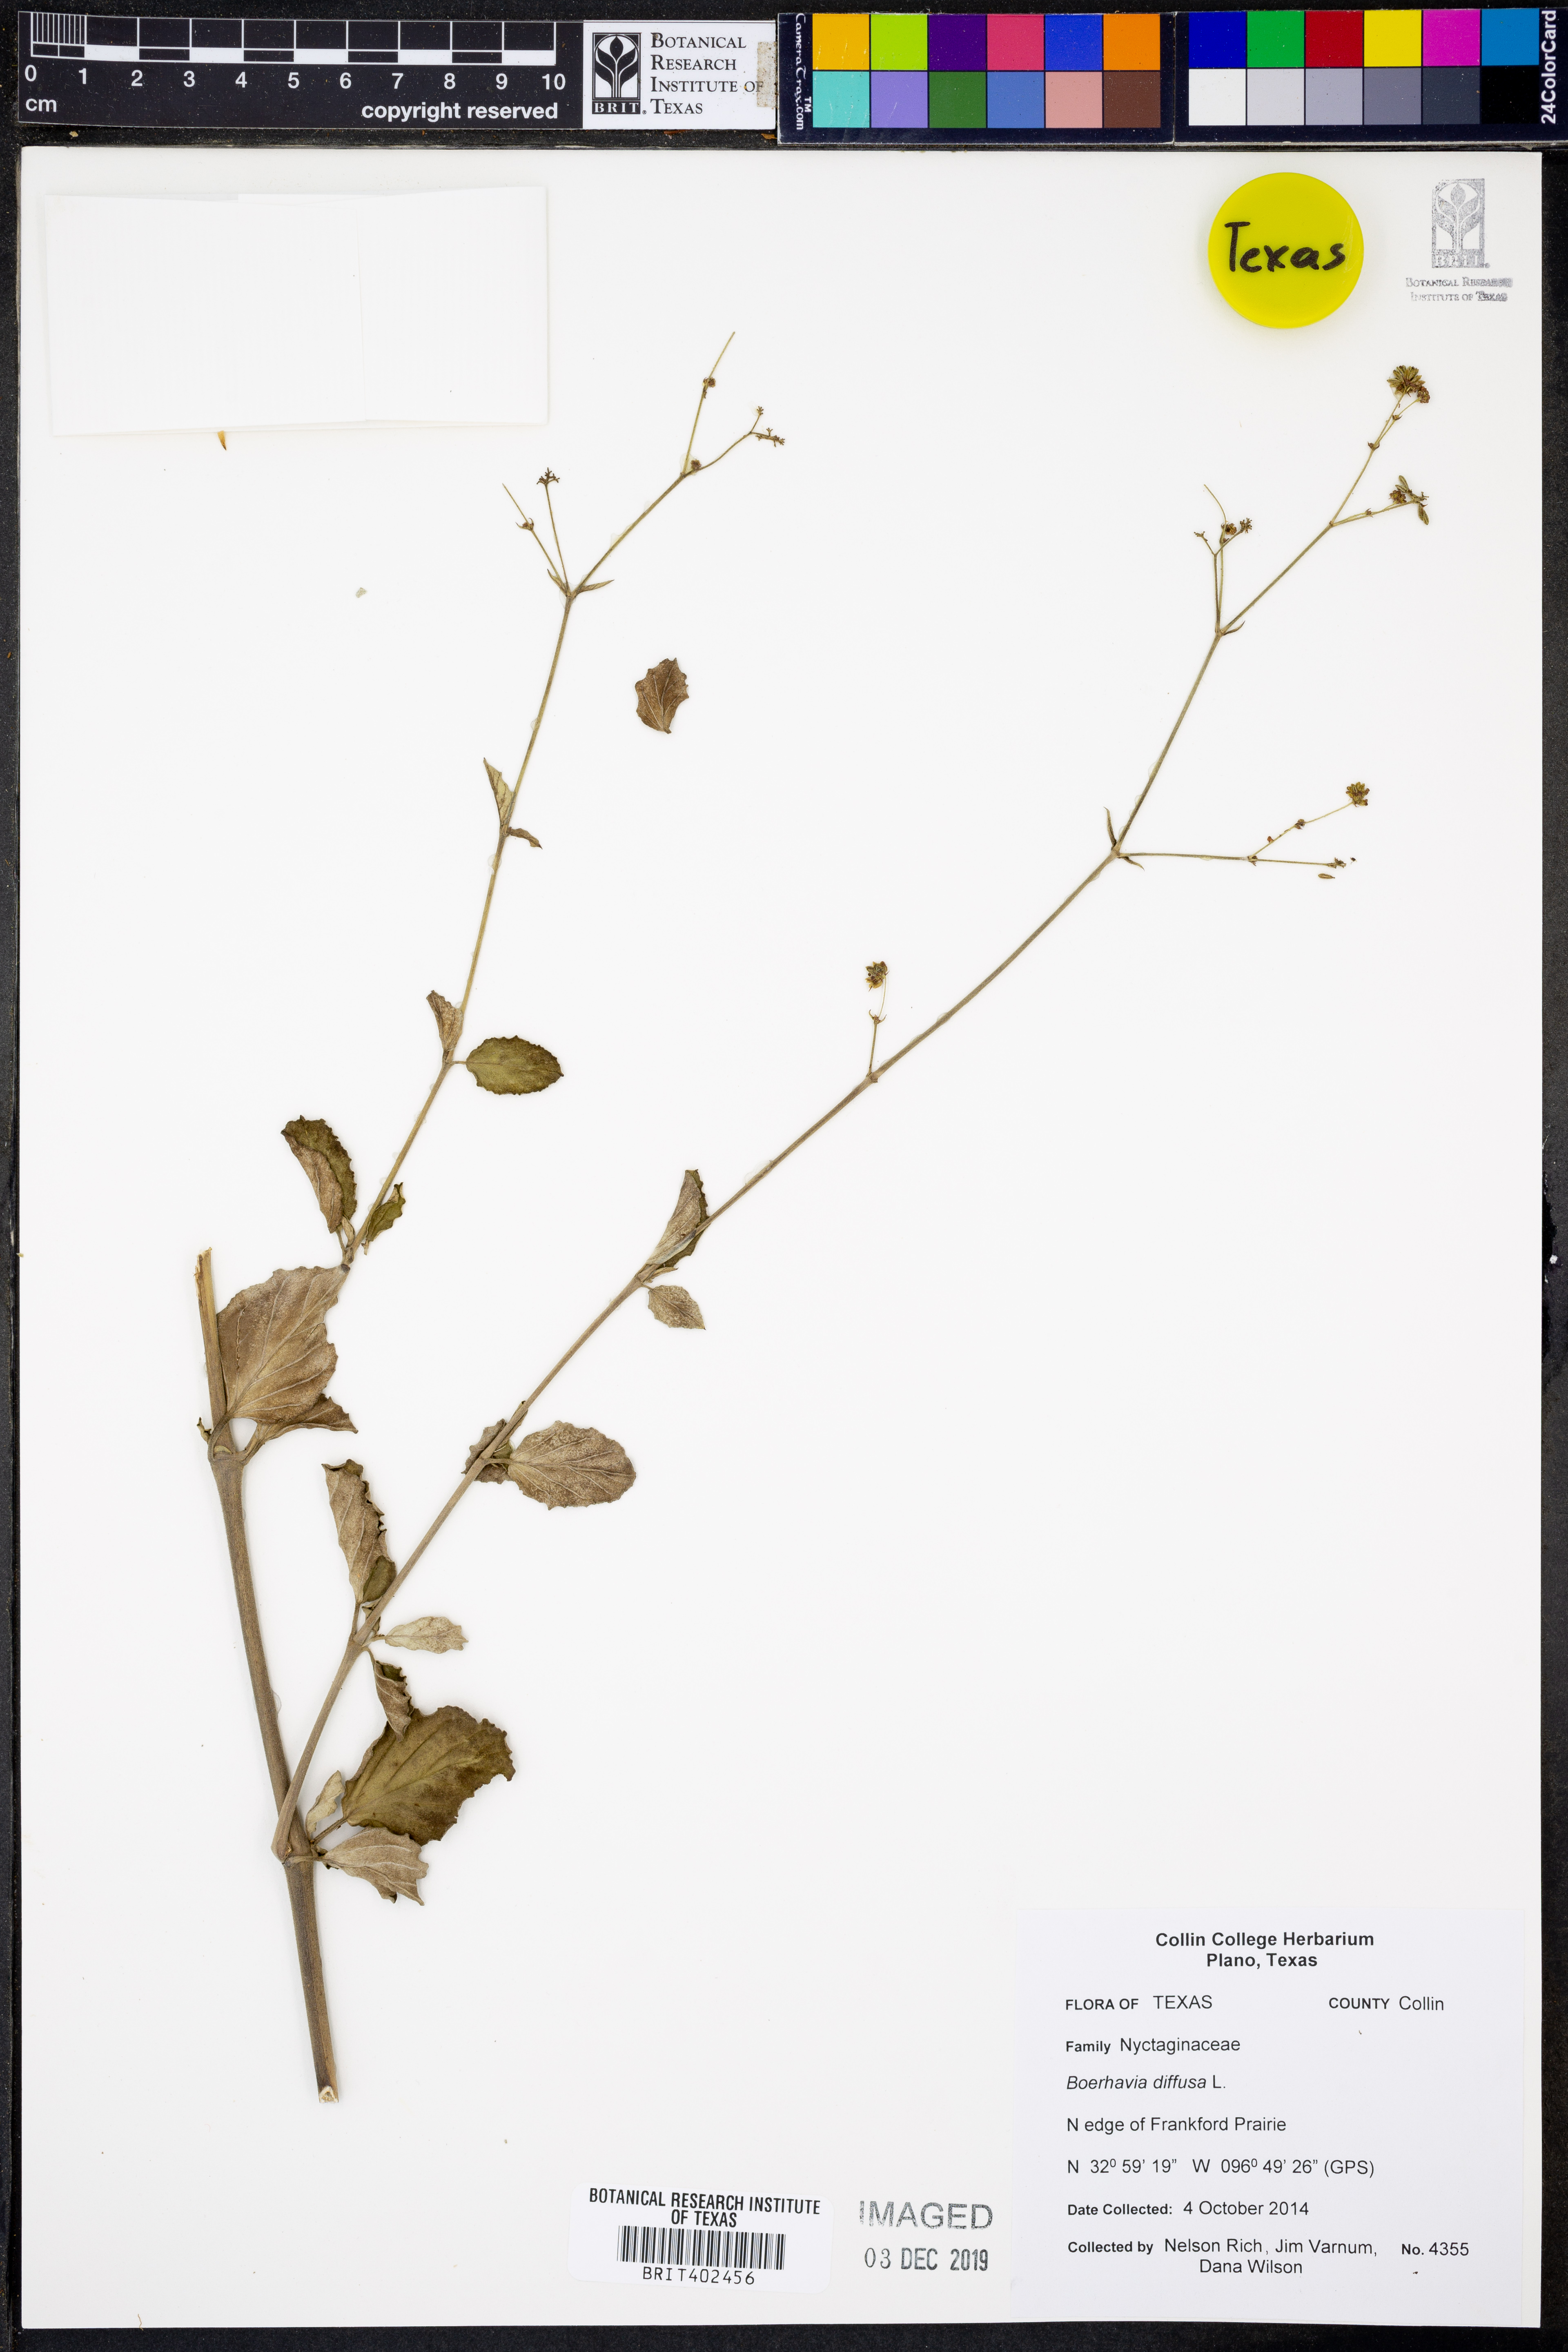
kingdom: Plantae
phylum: Tracheophyta
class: Magnoliopsida
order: Caryophyllales
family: Nyctaginaceae
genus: Boerhavia
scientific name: Boerhavia diffusa
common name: Red spiderling
